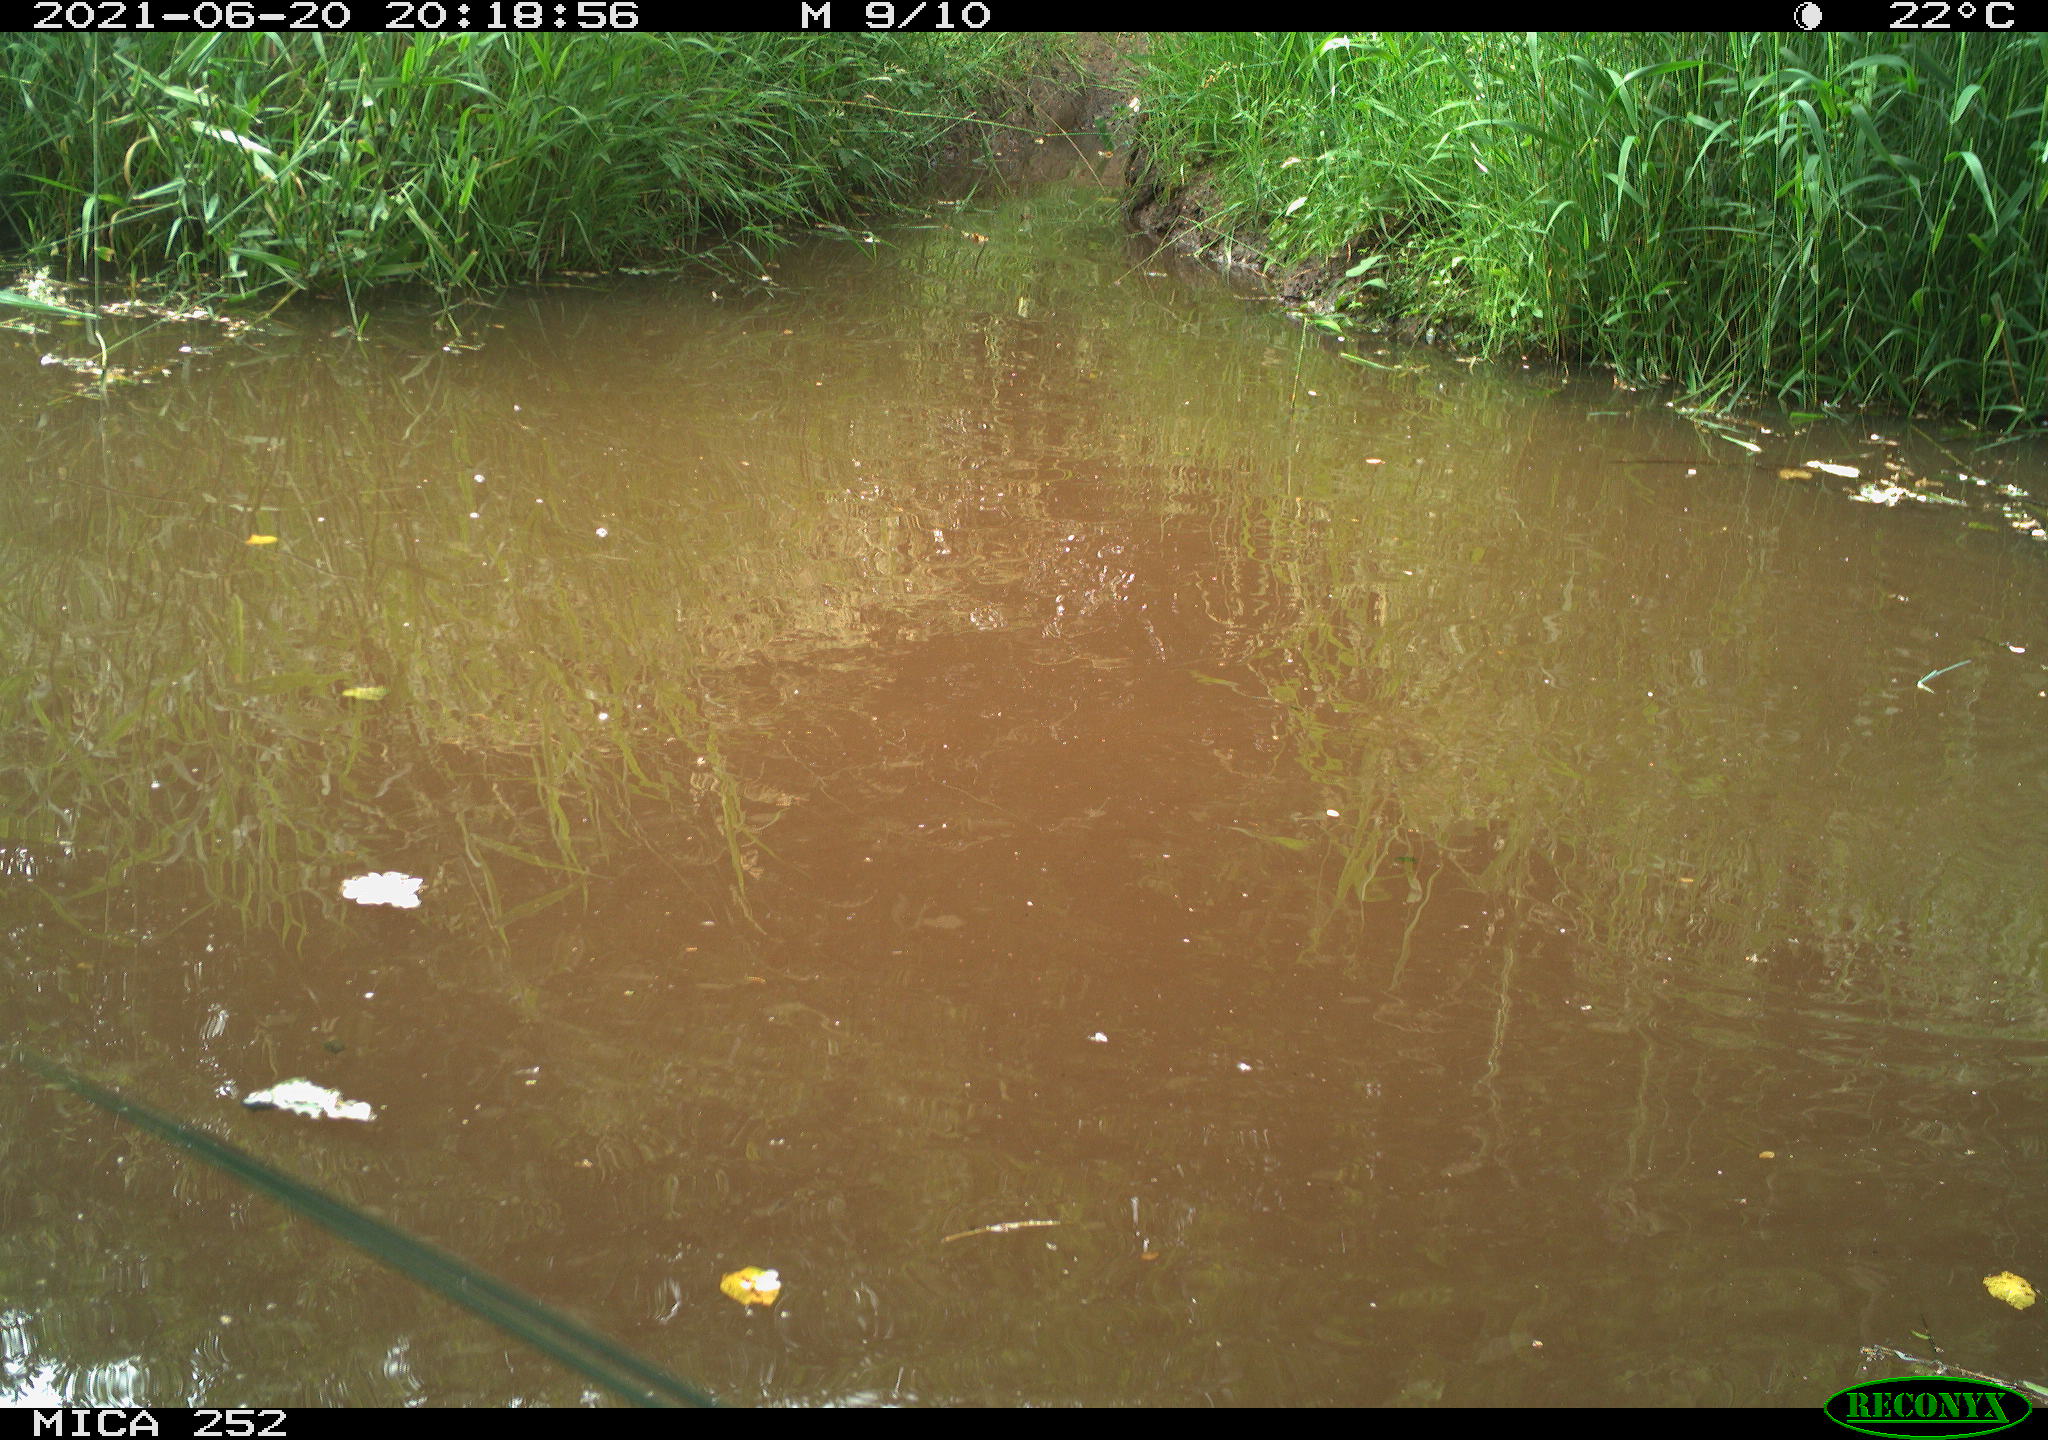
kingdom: Animalia
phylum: Chordata
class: Aves
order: Anseriformes
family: Anatidae
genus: Anser
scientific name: Anser anser
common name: Greylag goose
